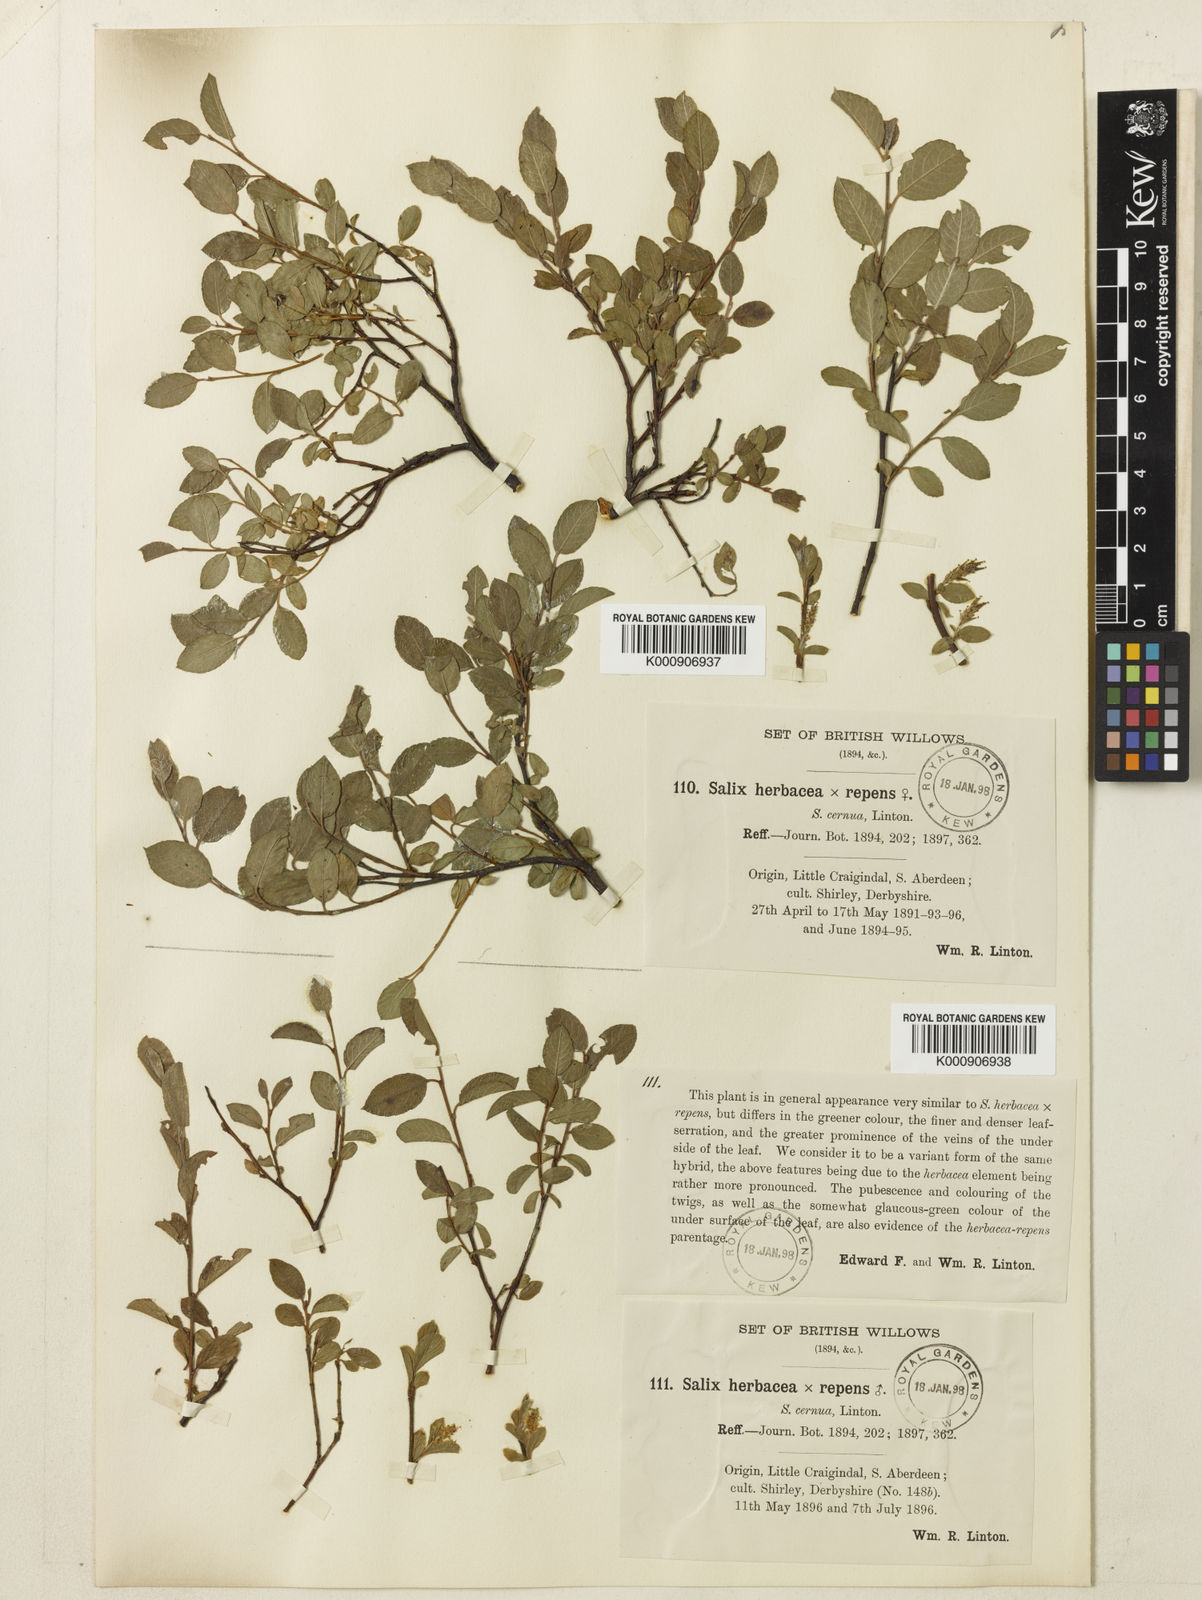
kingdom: Plantae
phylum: Tracheophyta
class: Magnoliopsida
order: Malpighiales
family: Salicaceae
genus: Salix
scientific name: Salix herbacea
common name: Dwarf willow
